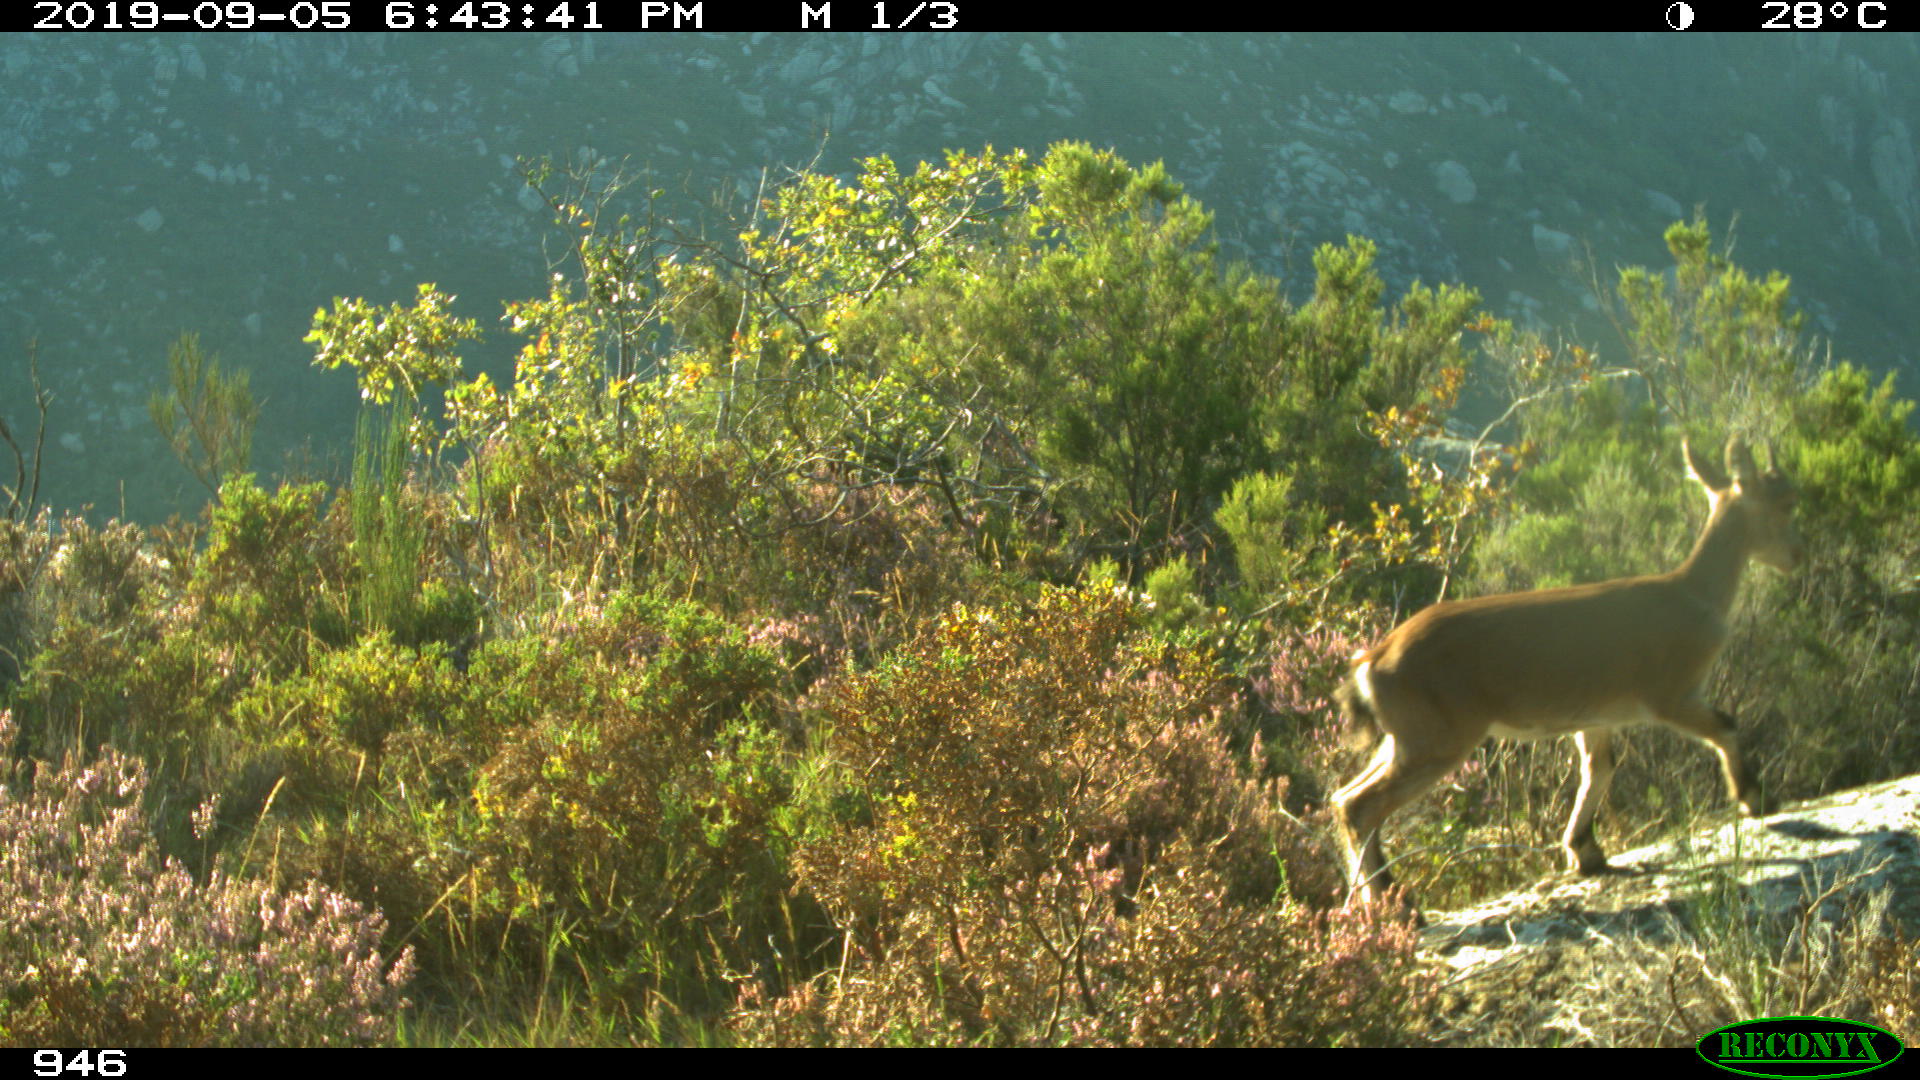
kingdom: Animalia
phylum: Chordata
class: Mammalia
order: Artiodactyla
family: Bovidae
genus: Capra
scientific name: Capra pyrenaica
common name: Spanish ibex
